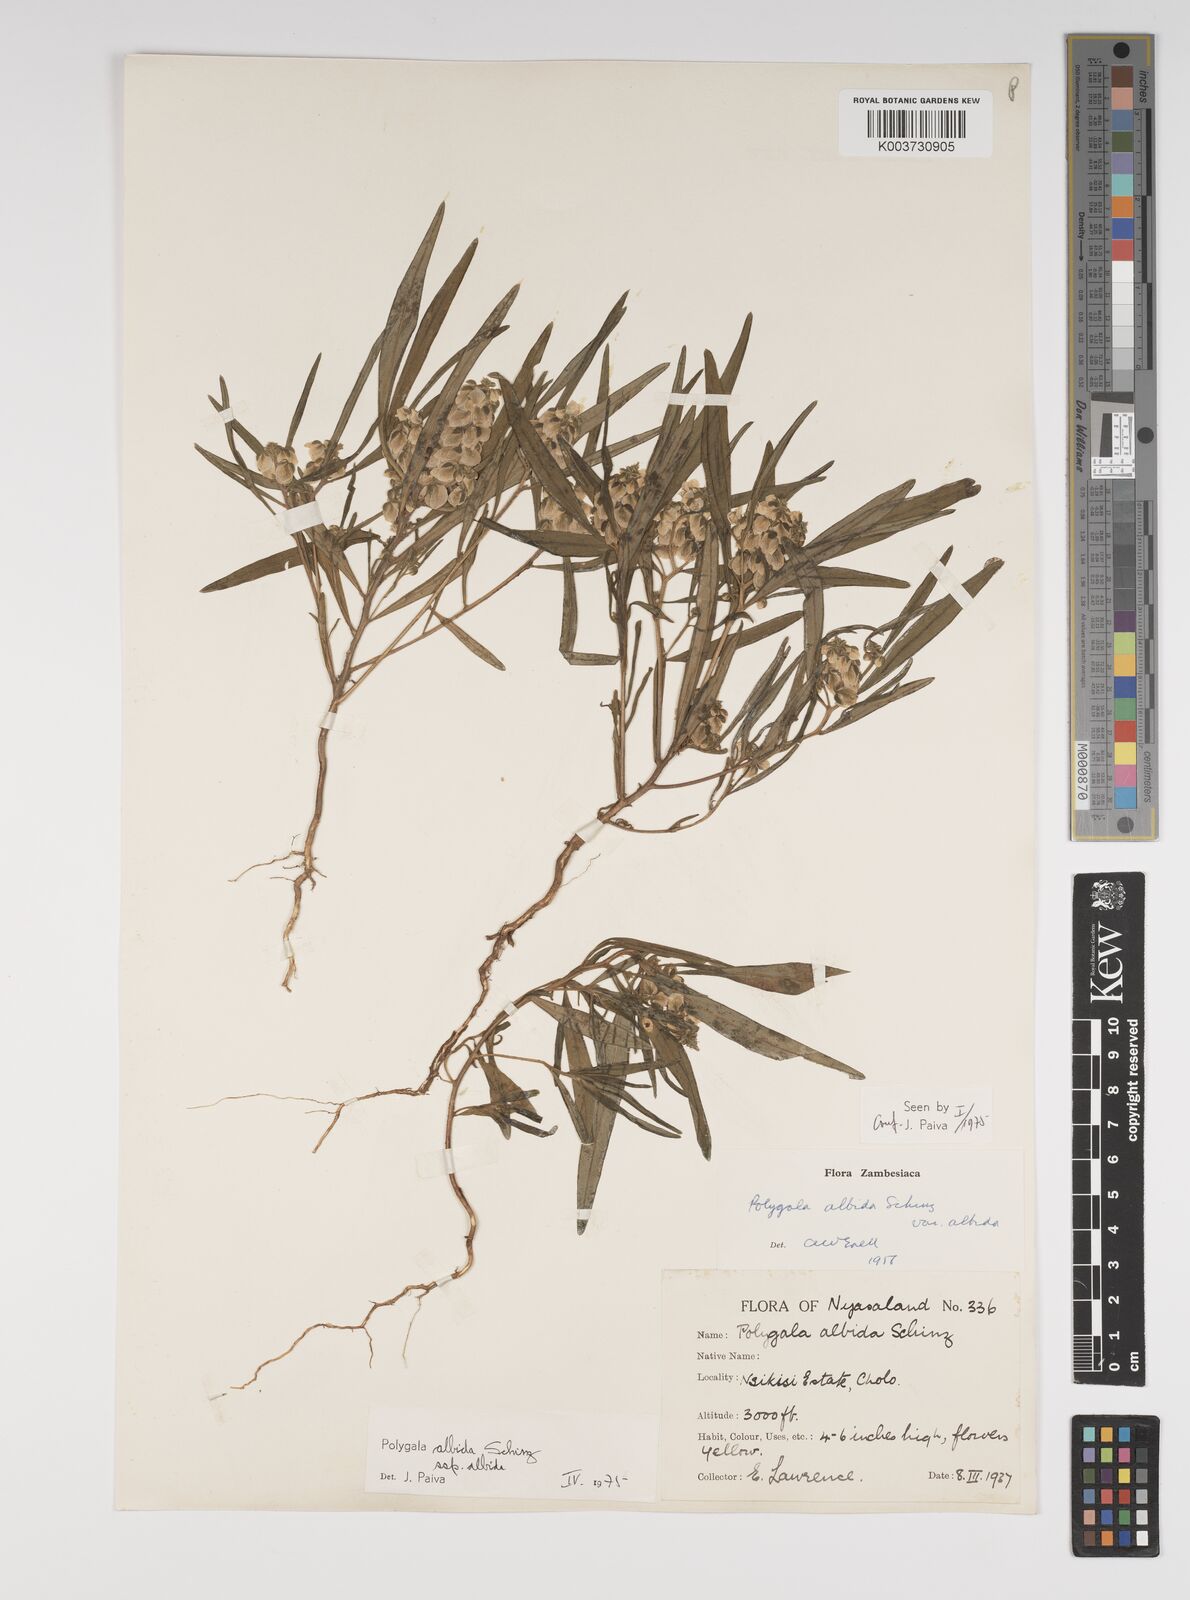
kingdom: Plantae
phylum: Tracheophyta
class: Magnoliopsida
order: Fabales
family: Polygalaceae
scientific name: Polygalaceae
